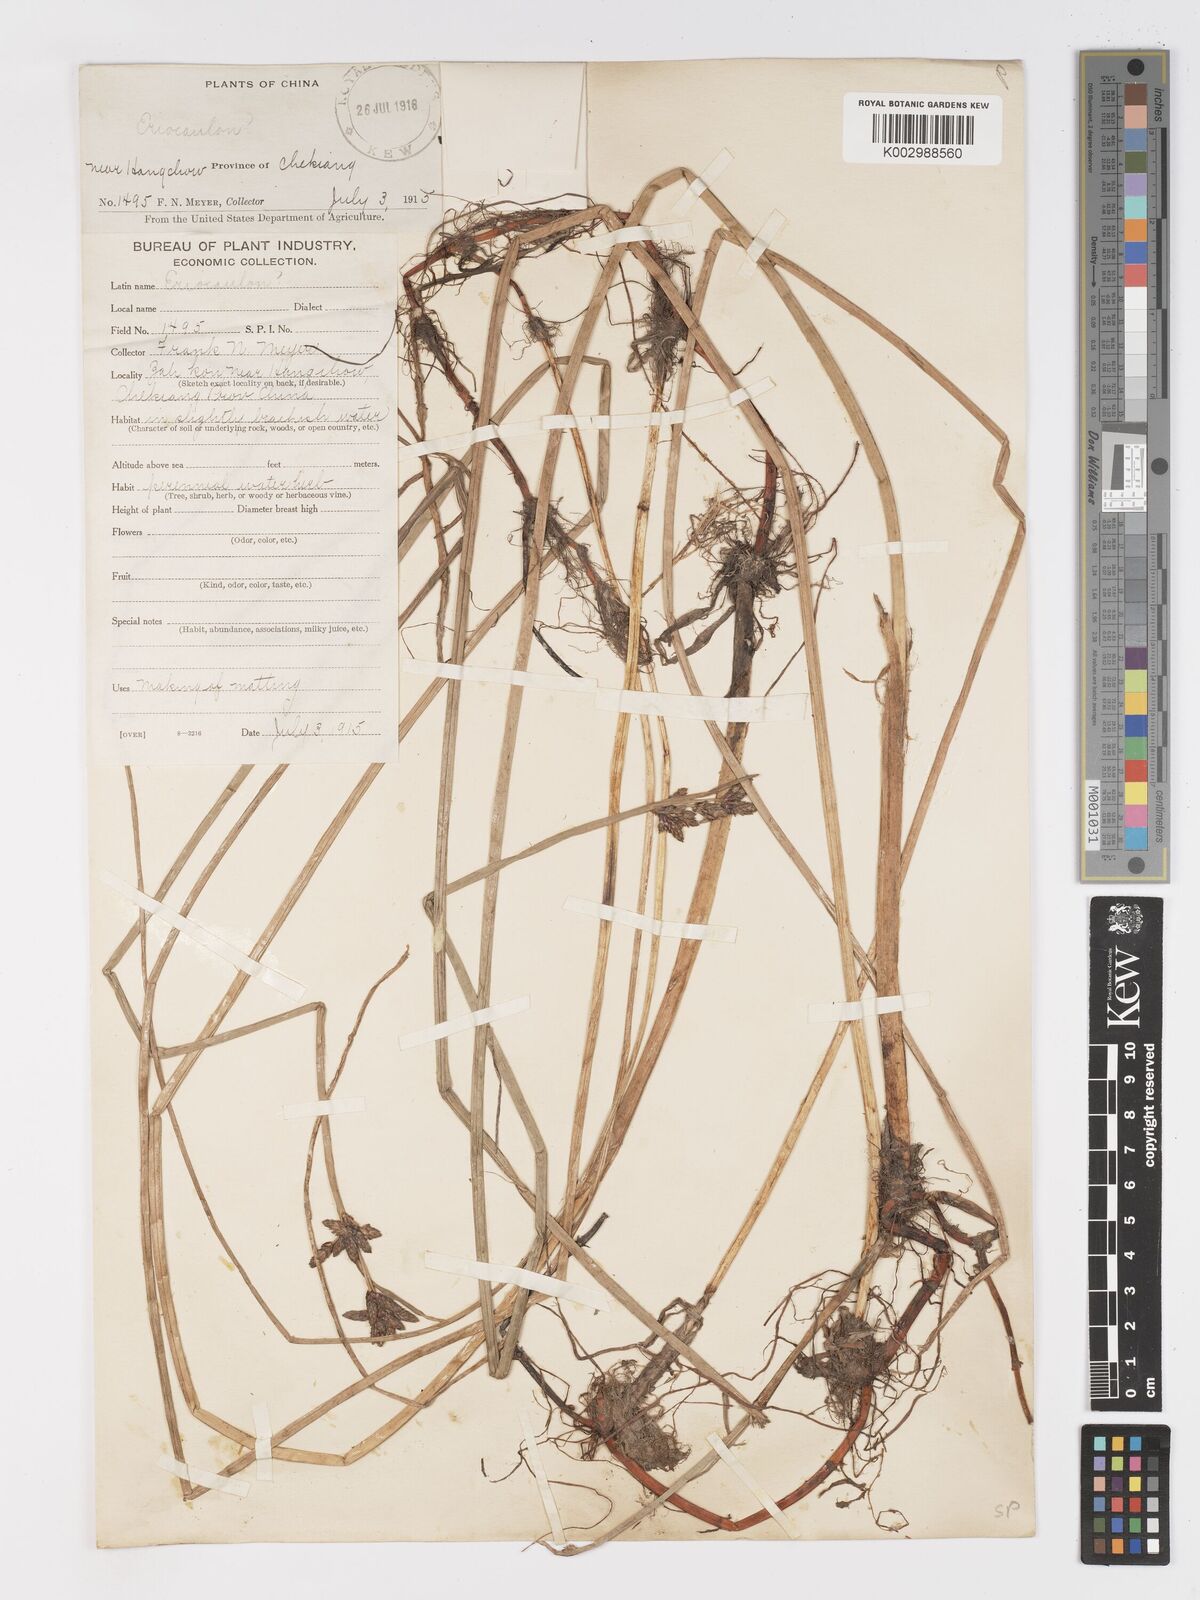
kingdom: Plantae
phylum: Tracheophyta
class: Liliopsida
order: Poales
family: Cyperaceae
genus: Schoenoplectus
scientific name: Schoenoplectus
